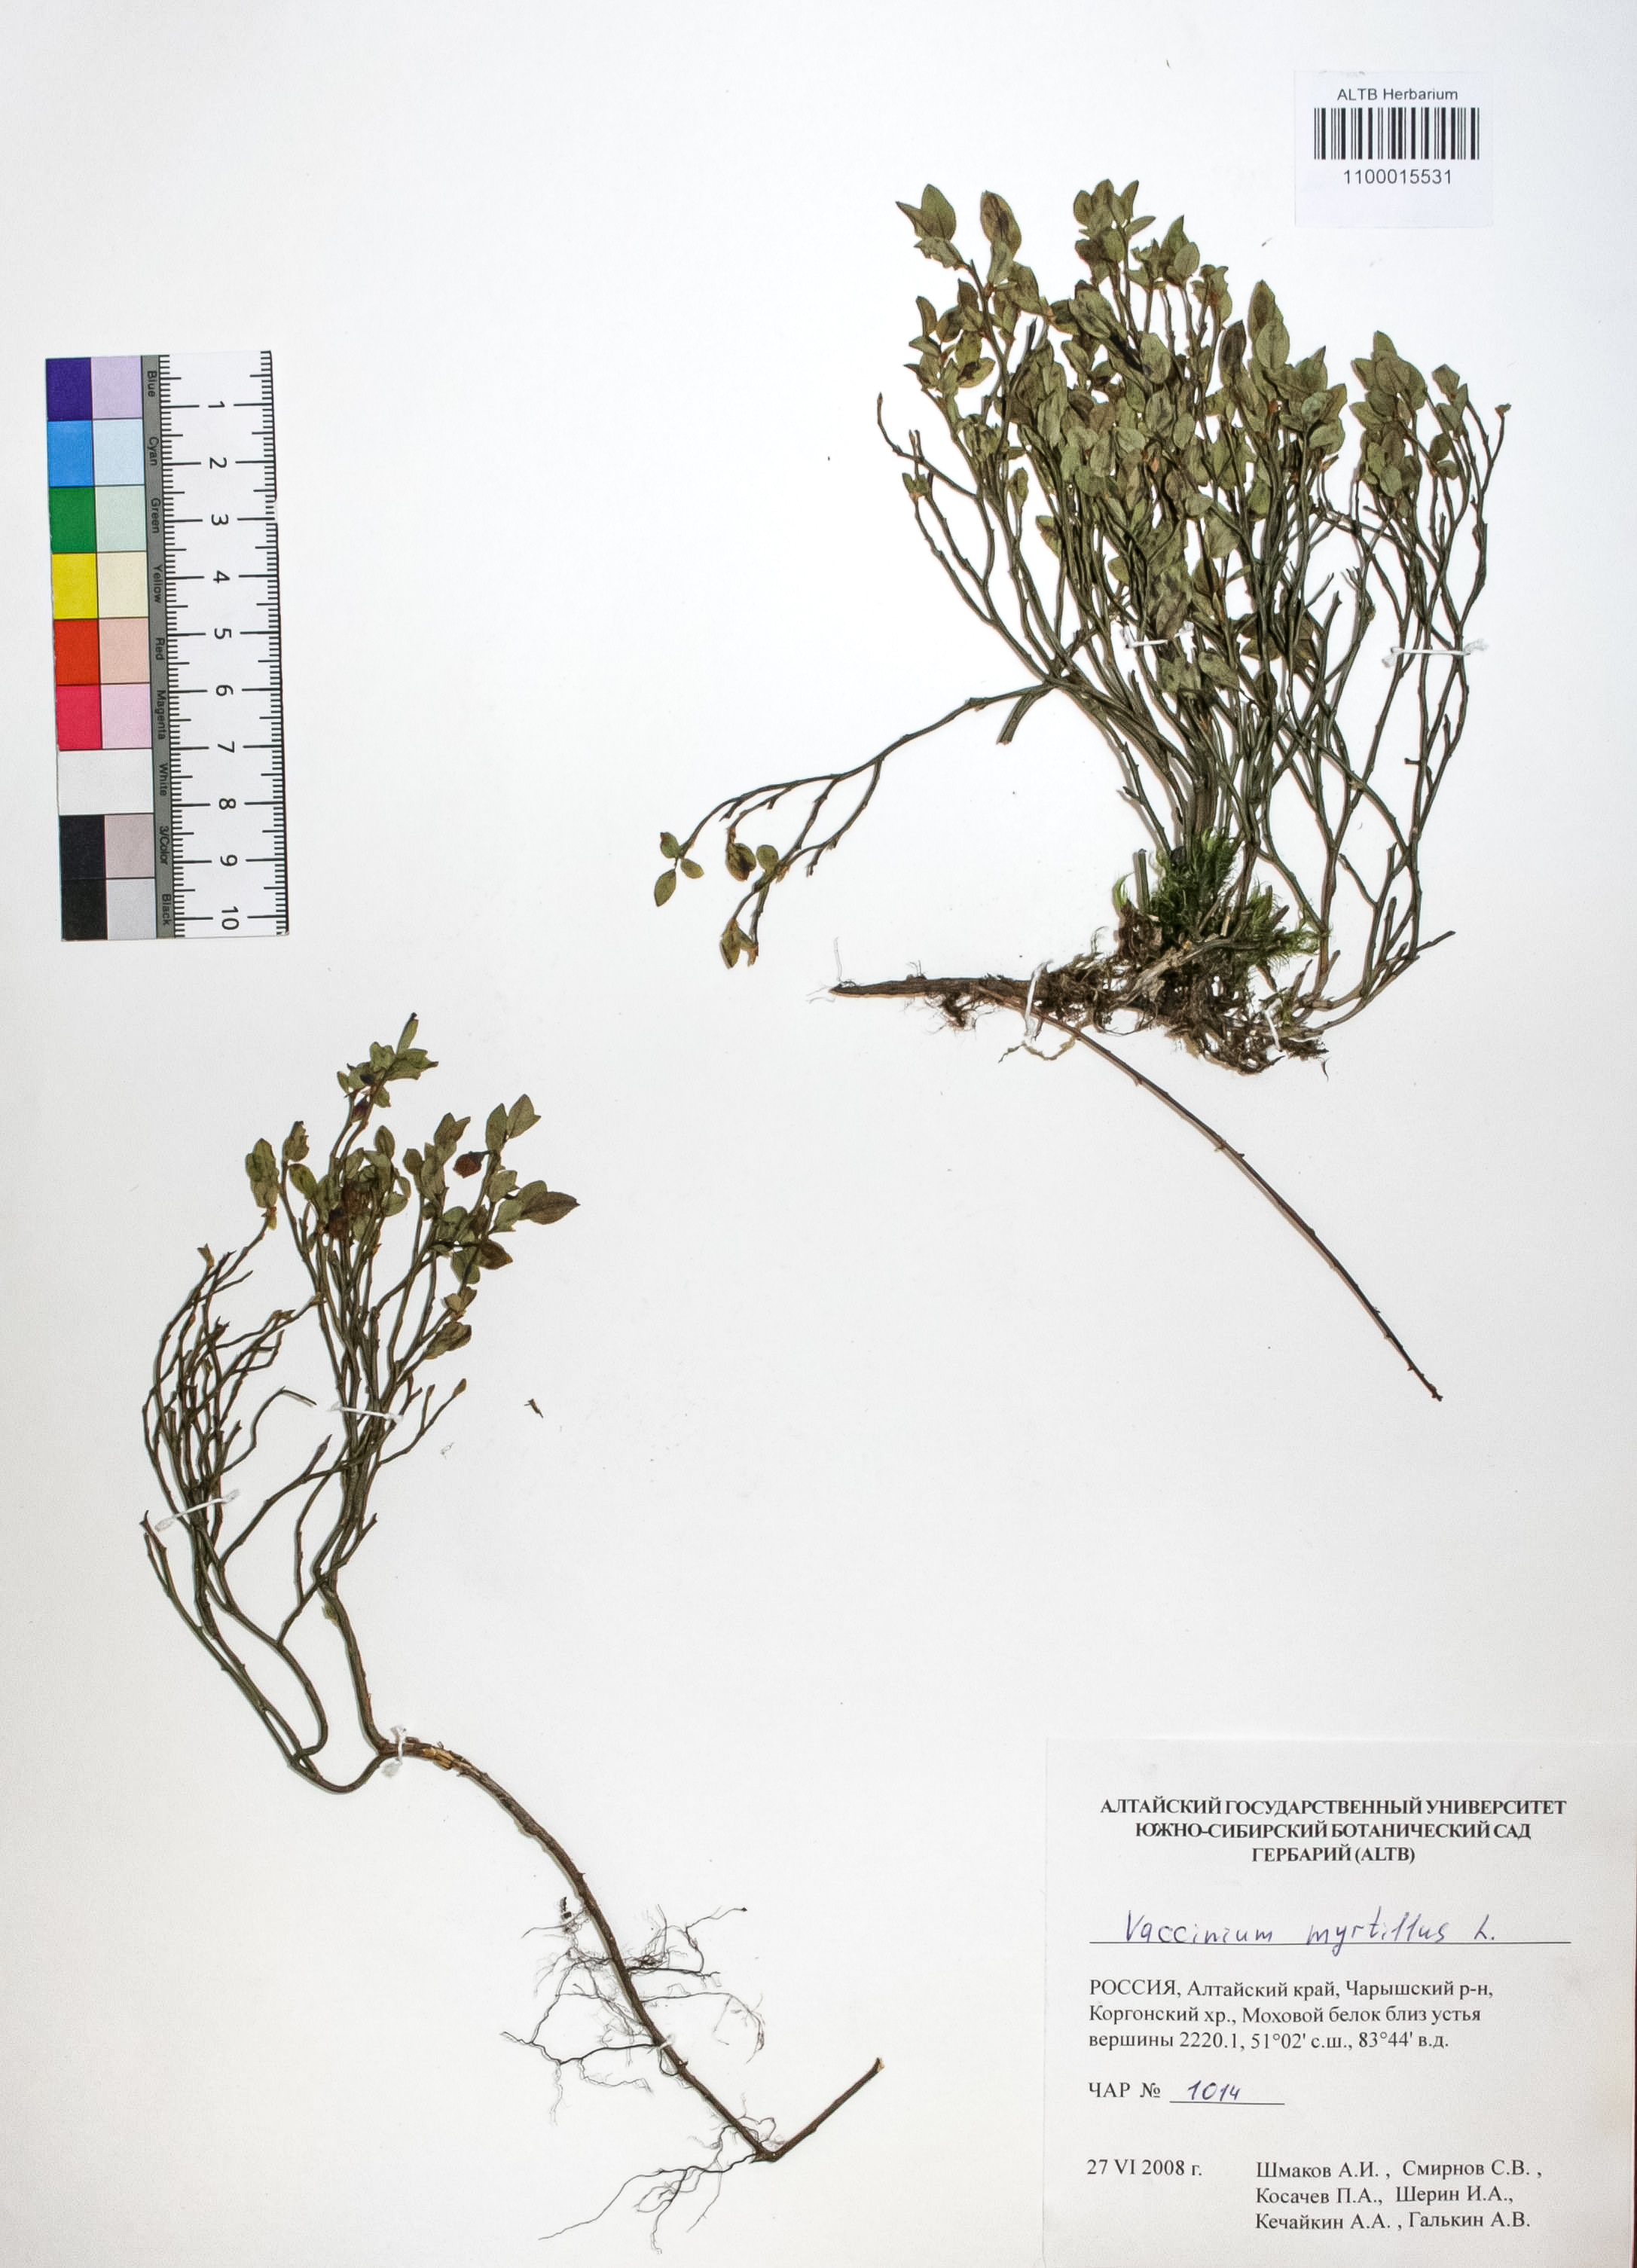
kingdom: Plantae
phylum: Tracheophyta
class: Magnoliopsida
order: Ericales
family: Ericaceae
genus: Vaccinium
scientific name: Vaccinium myrtillus
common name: Bilberry
